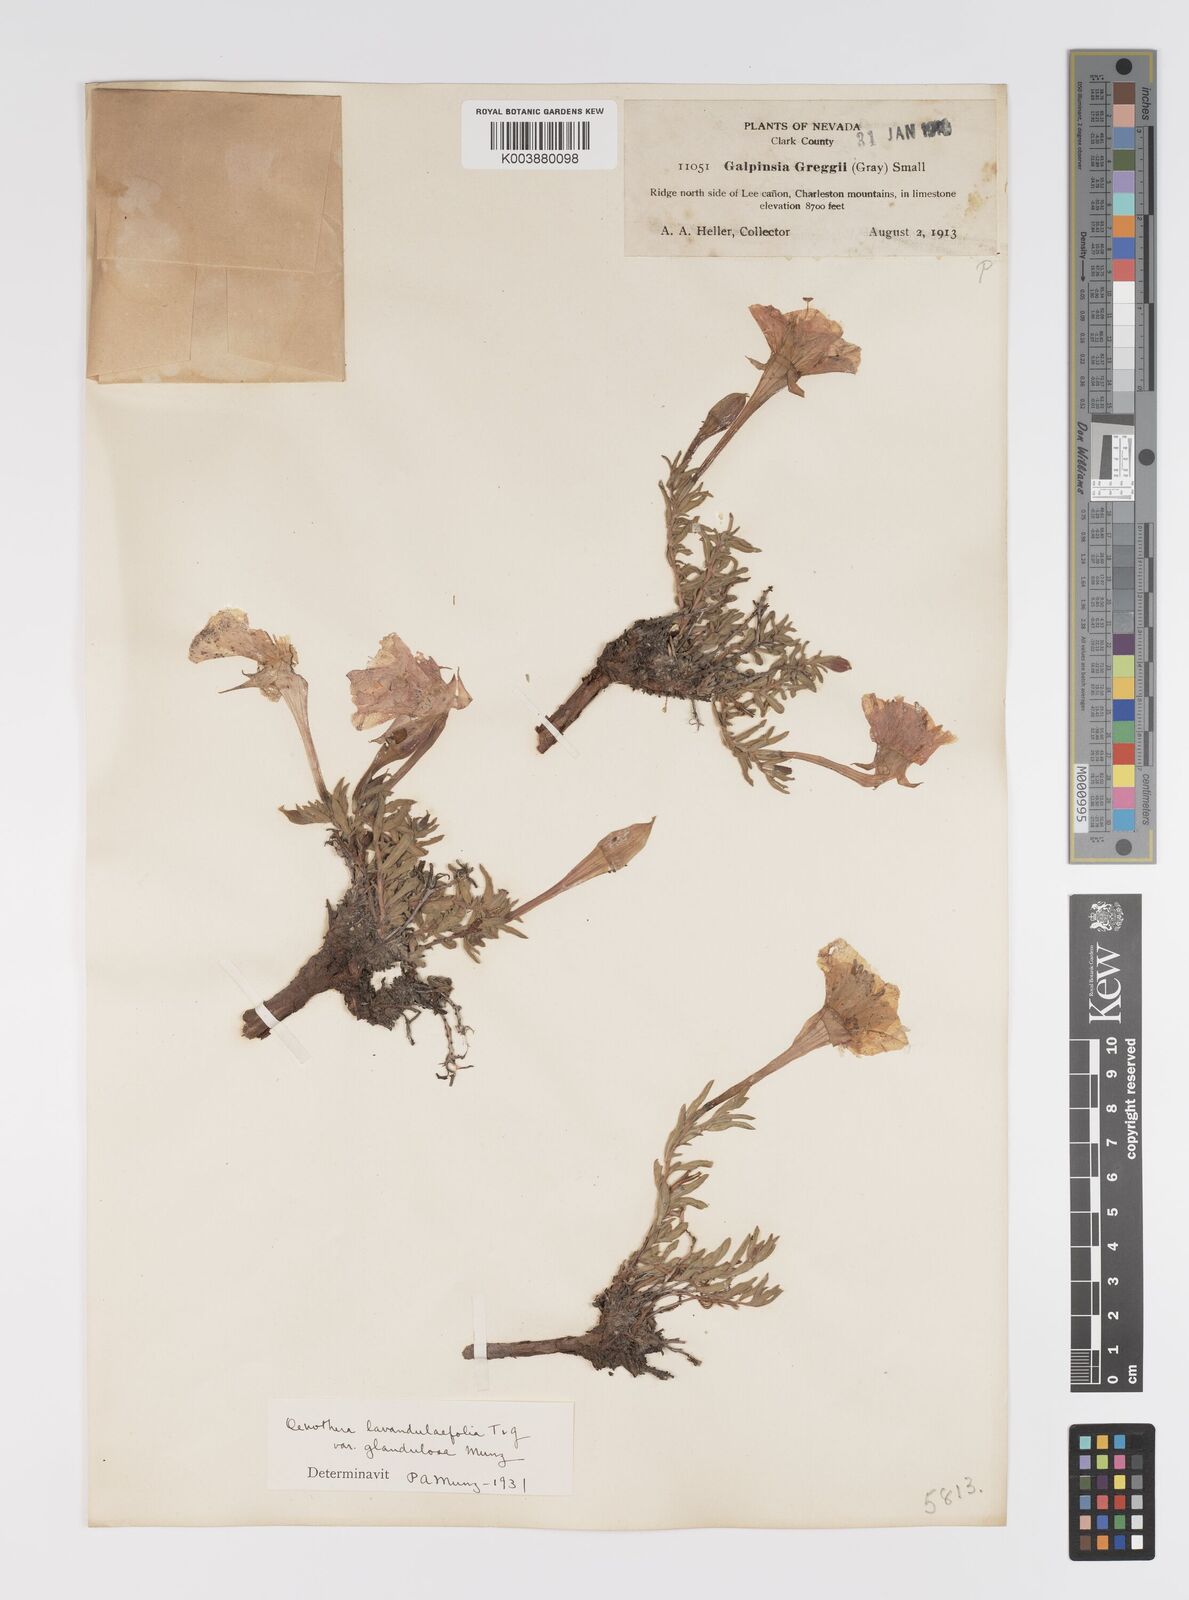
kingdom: Plantae
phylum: Tracheophyta
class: Magnoliopsida
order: Myrtales
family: Onagraceae
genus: Oenothera
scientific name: Oenothera lavandulifolia
